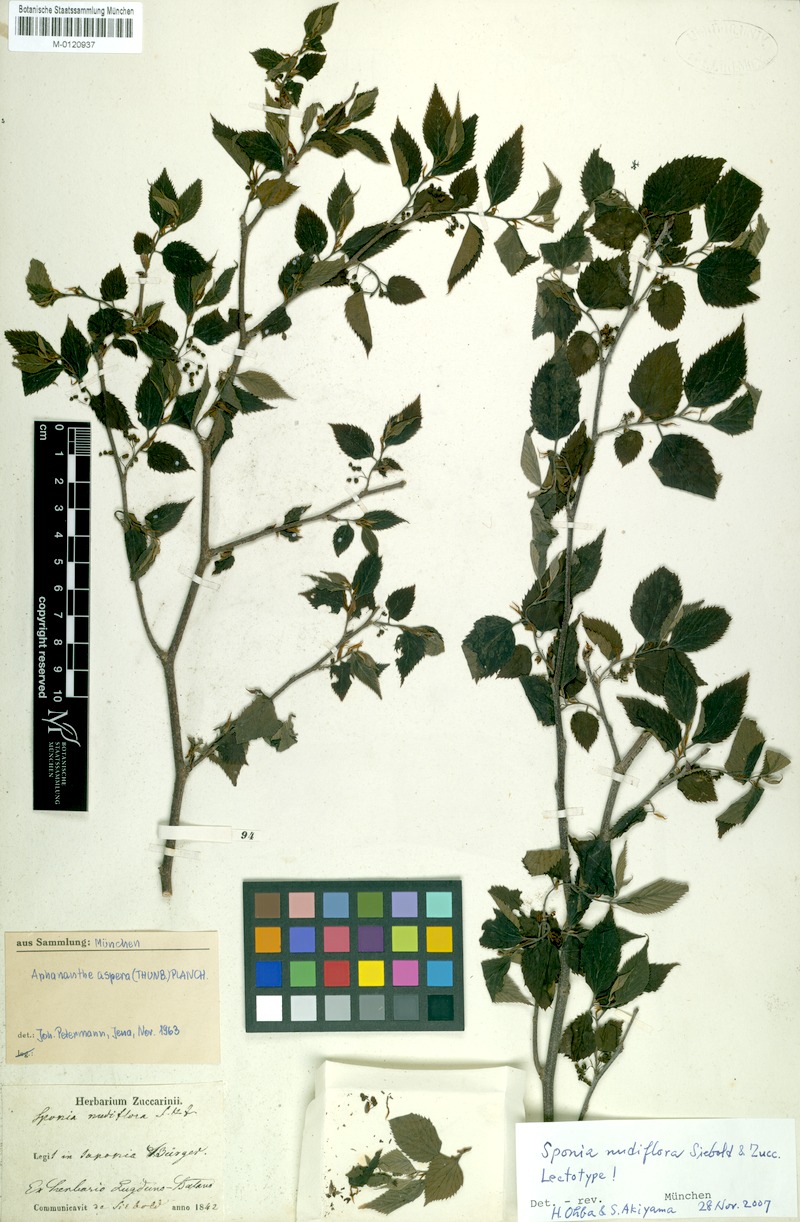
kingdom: Plantae
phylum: Tracheophyta
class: Magnoliopsida
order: Rosales
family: Cannabaceae
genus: Aphananthe
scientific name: Aphananthe aspera
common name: Mukutree
